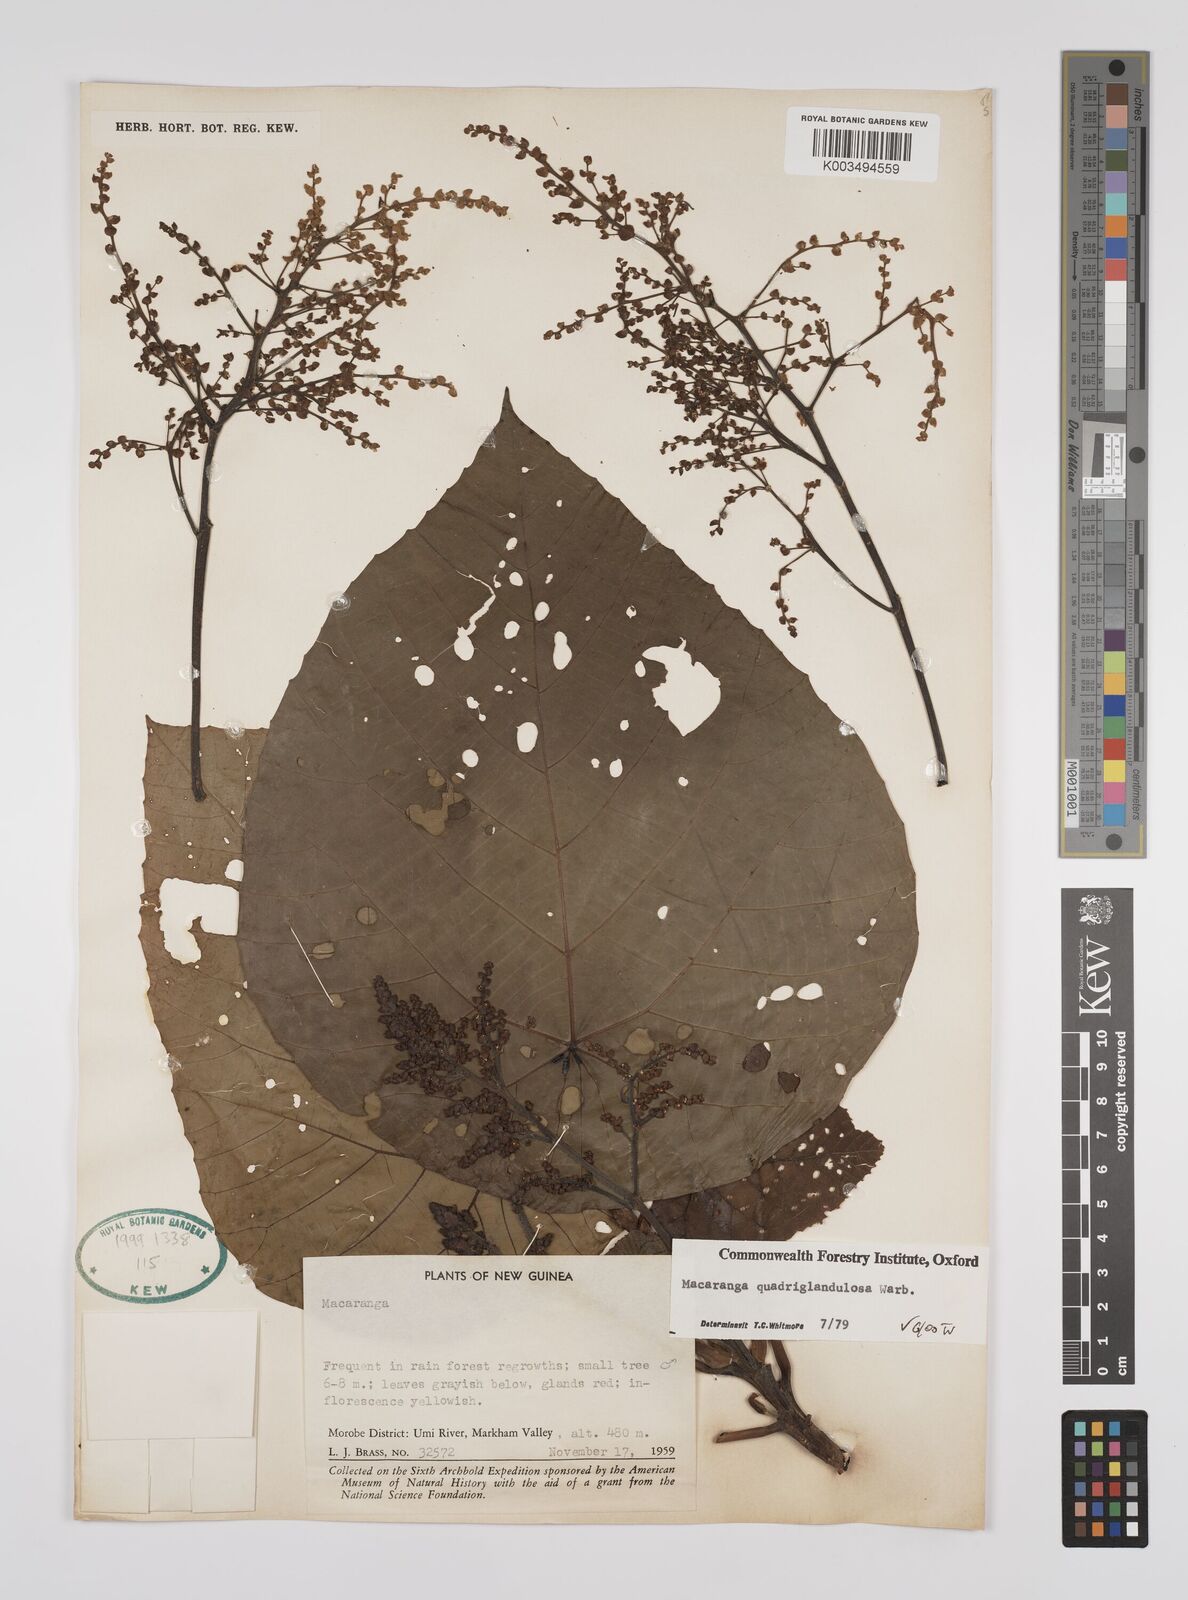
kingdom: Plantae
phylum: Tracheophyta
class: Magnoliopsida
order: Malpighiales
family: Euphorbiaceae
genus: Macaranga
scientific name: Macaranga quadriglandulosa
